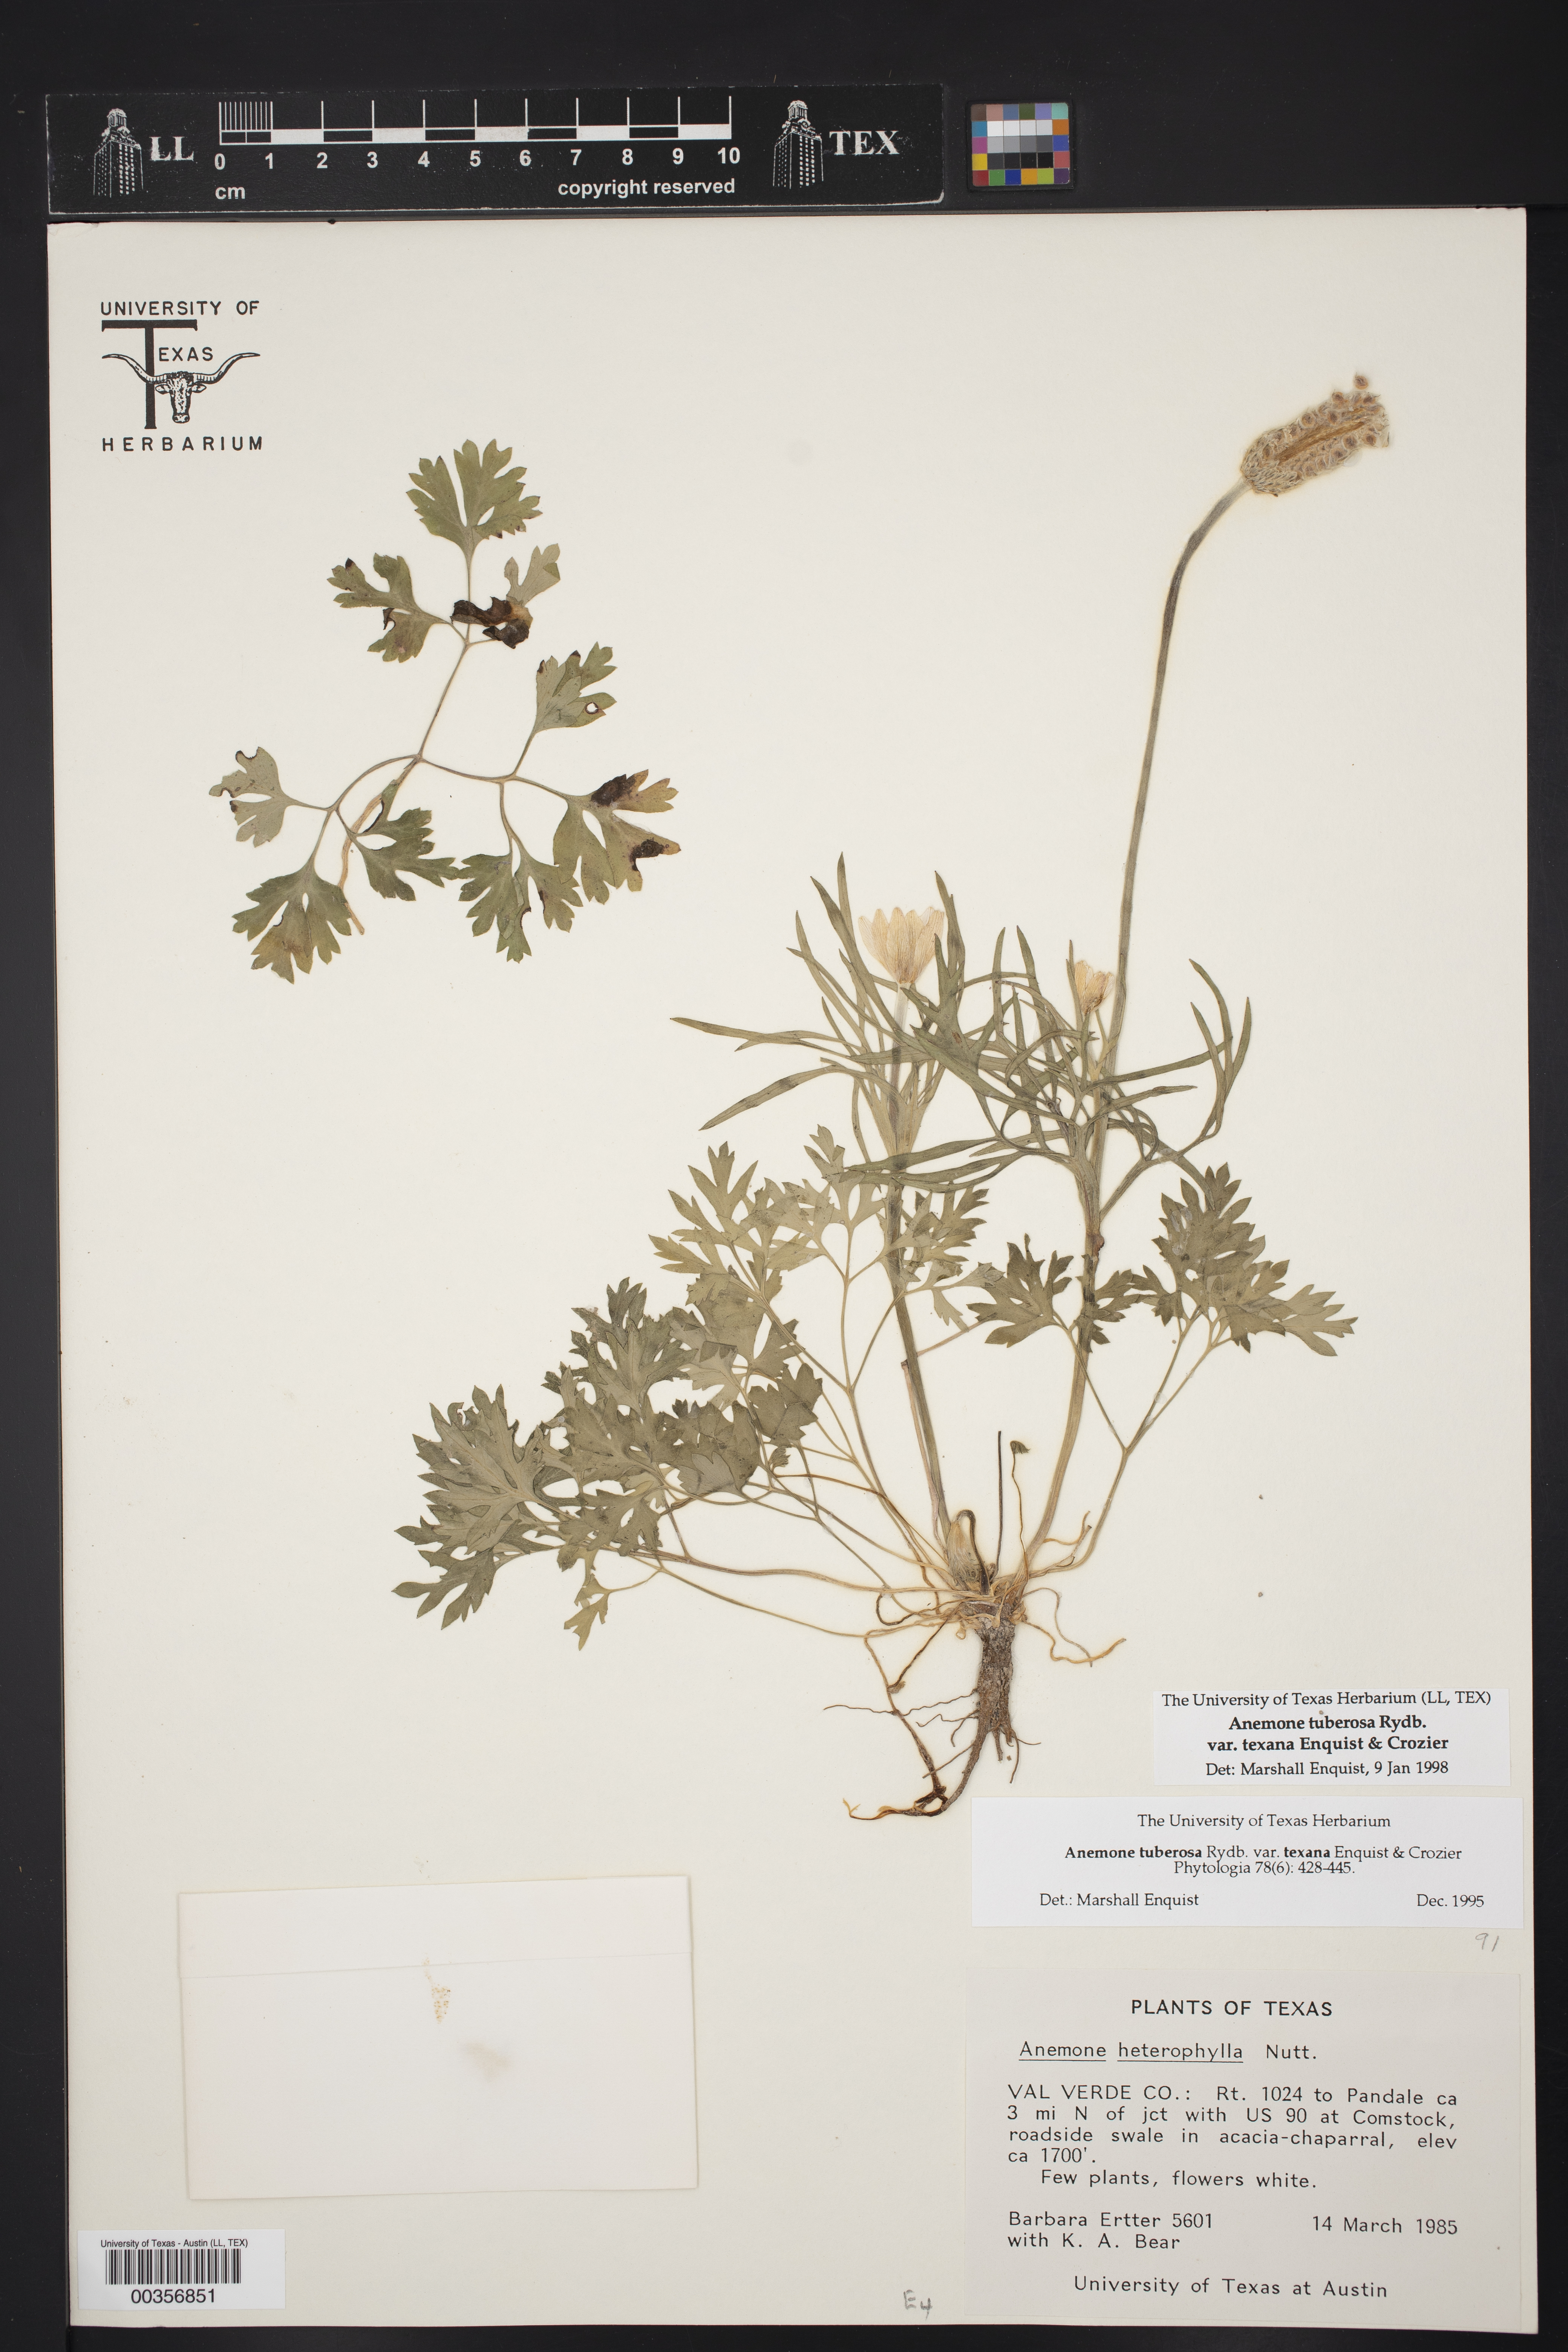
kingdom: Plantae
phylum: Tracheophyta
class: Magnoliopsida
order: Ranunculales
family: Ranunculaceae
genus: Anemone
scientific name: Anemone tuberosa
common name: Desert anemone
